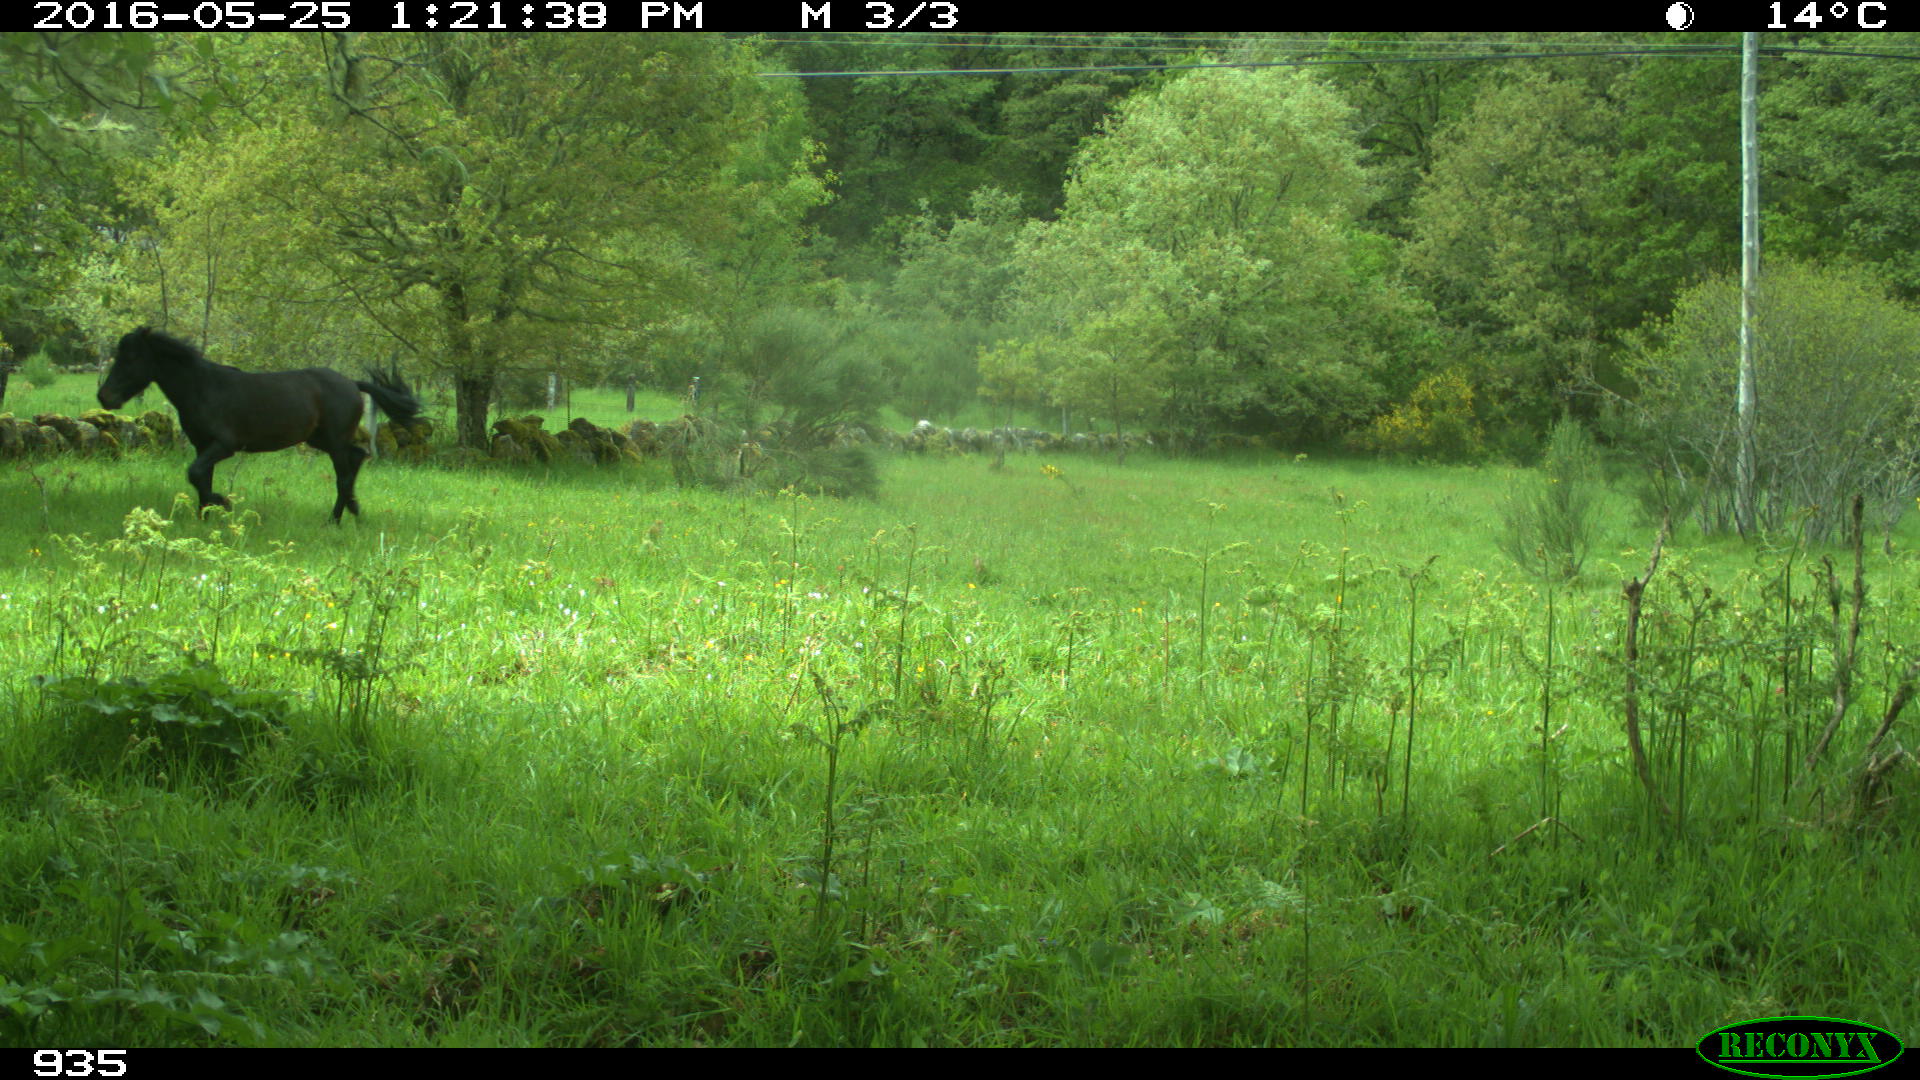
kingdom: Animalia
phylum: Chordata
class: Mammalia
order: Perissodactyla
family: Equidae
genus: Equus
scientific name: Equus caballus
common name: Horse
